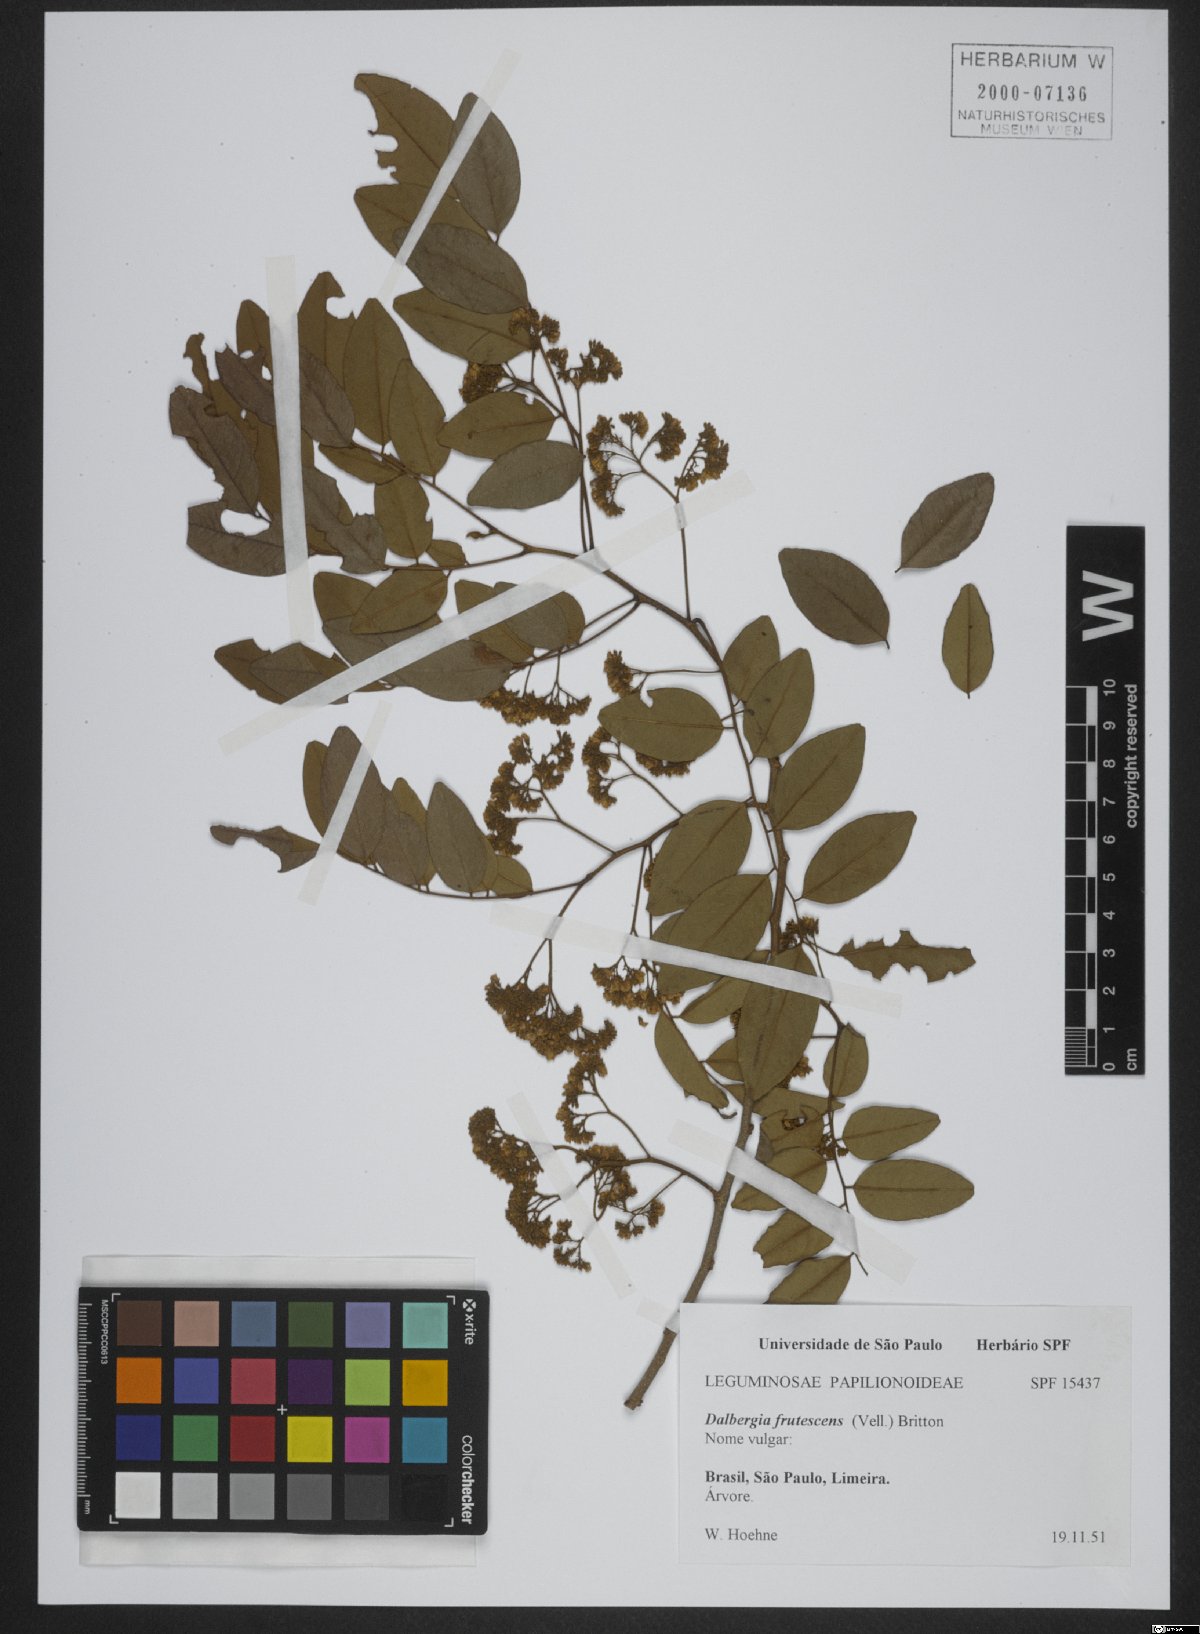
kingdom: Plantae
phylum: Tracheophyta
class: Magnoliopsida
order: Fabales
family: Fabaceae
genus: Dalbergia
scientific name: Dalbergia frutescens
